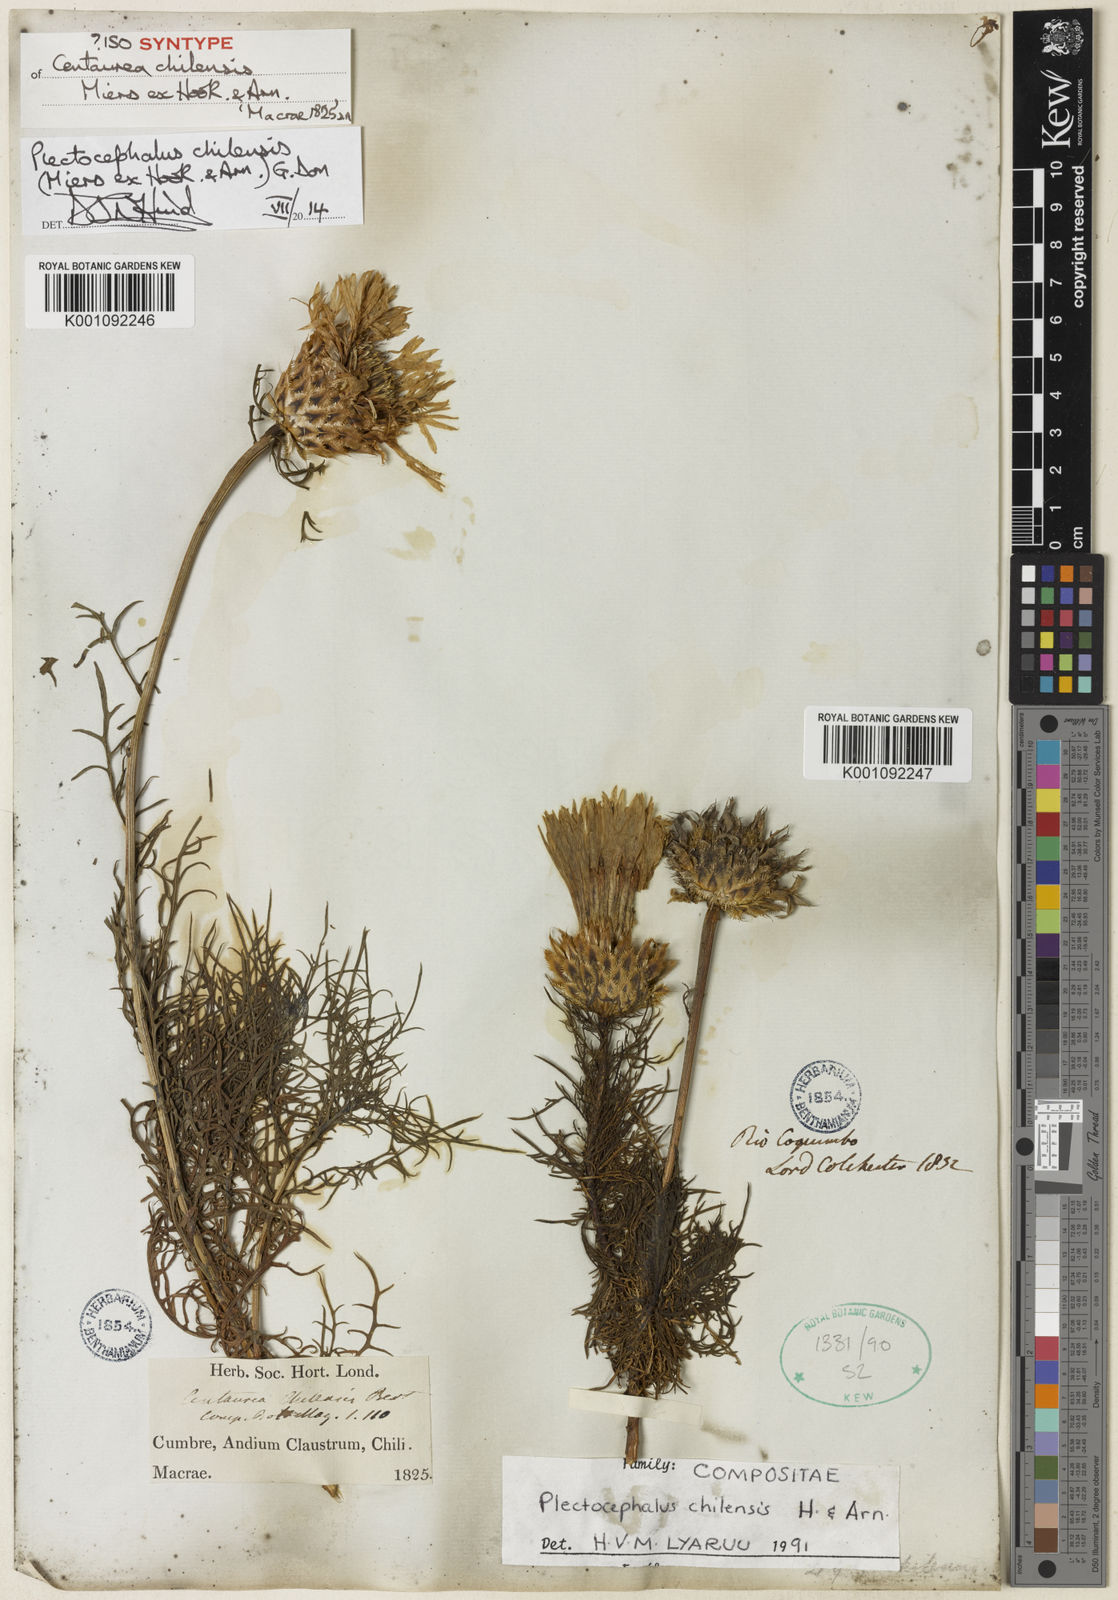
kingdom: Plantae
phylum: Tracheophyta
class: Magnoliopsida
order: Asterales
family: Asteraceae
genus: Plectocephalus
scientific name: Plectocephalus chilensis
